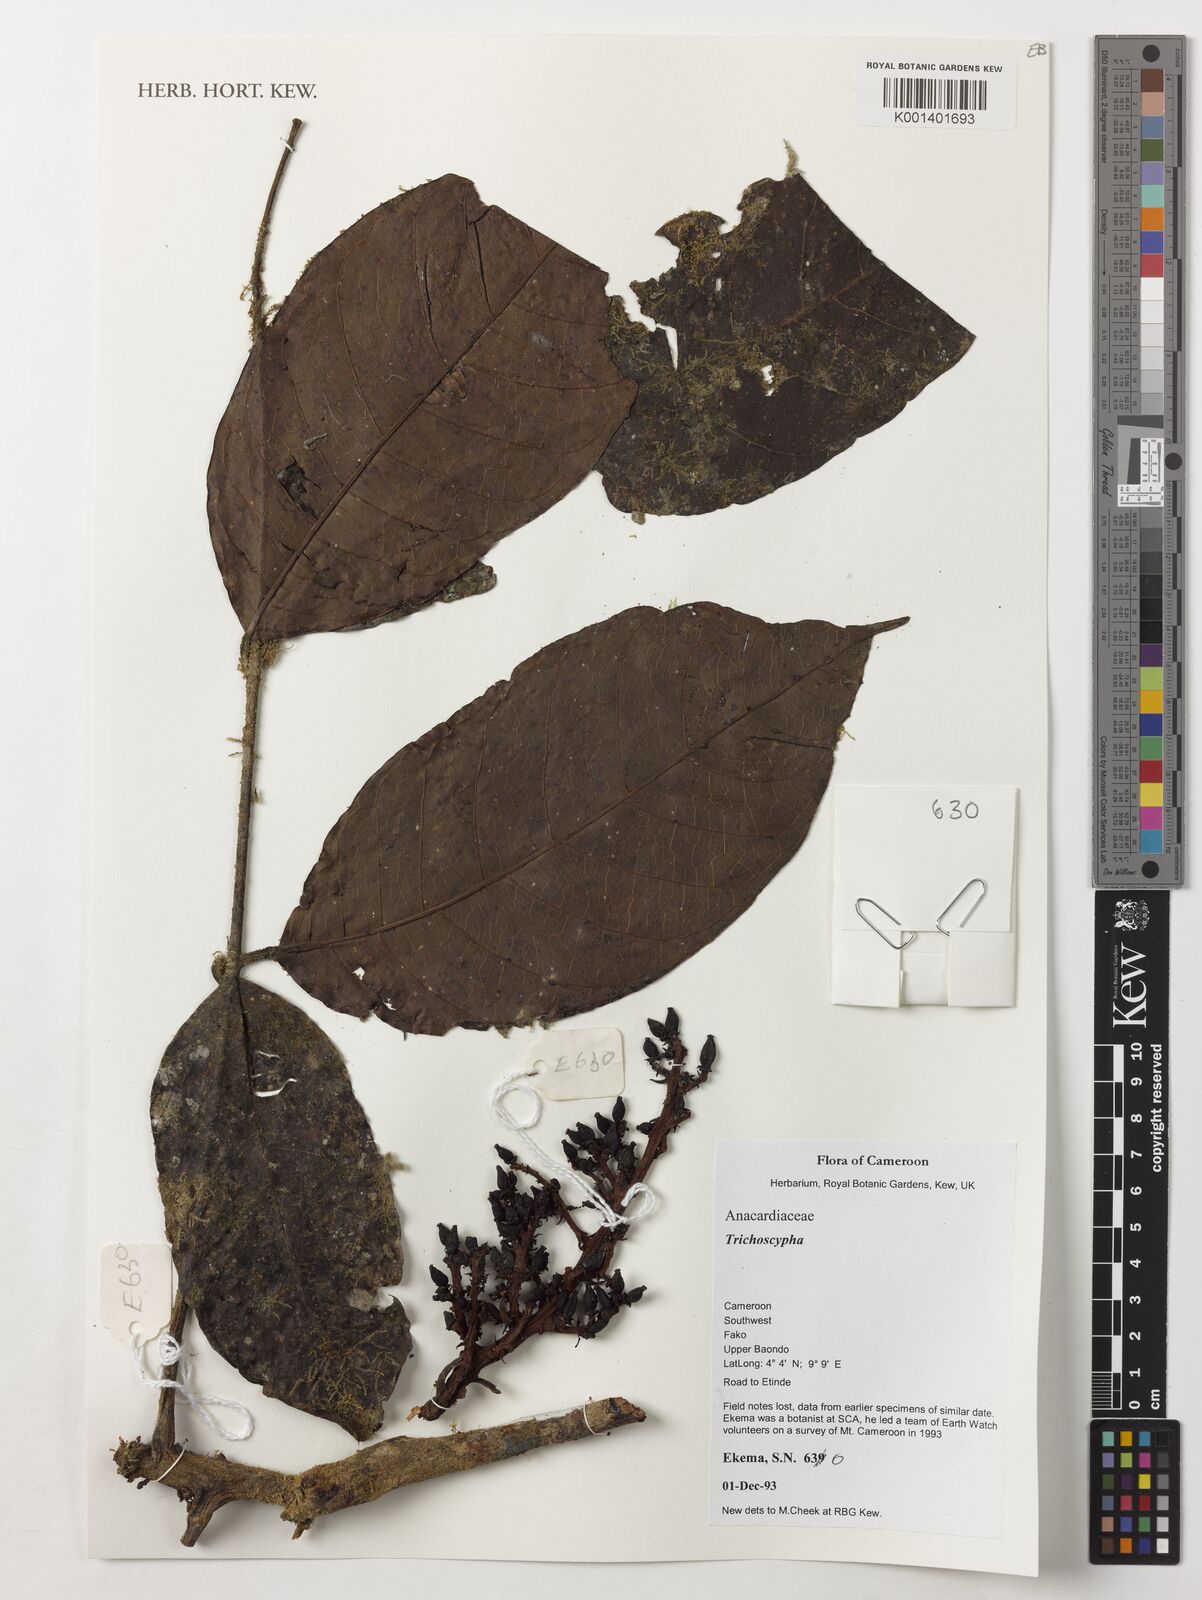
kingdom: Plantae
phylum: Tracheophyta
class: Magnoliopsida
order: Sapindales
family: Anacardiaceae
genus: Trichoscypha
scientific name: Trichoscypha
